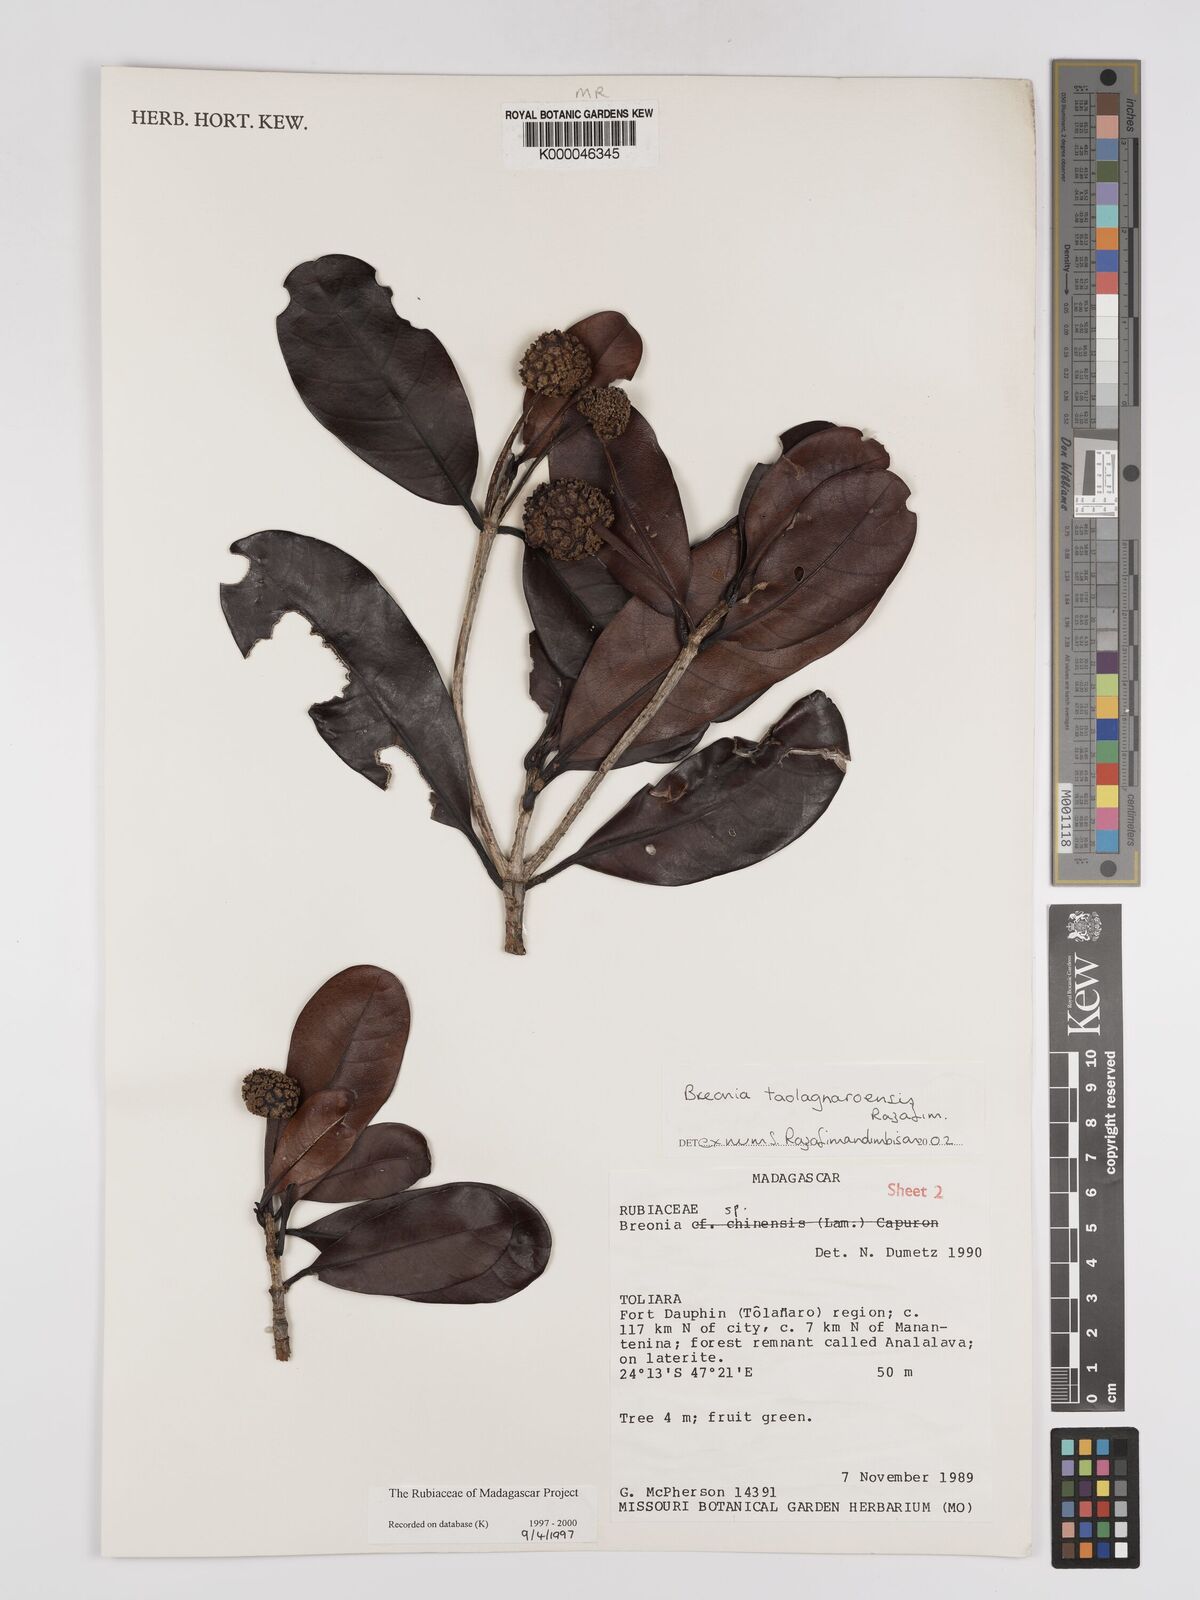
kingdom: Plantae
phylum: Tracheophyta
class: Magnoliopsida
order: Gentianales
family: Rubiaceae
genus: Breonia
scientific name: Breonia taolagnaroensis
